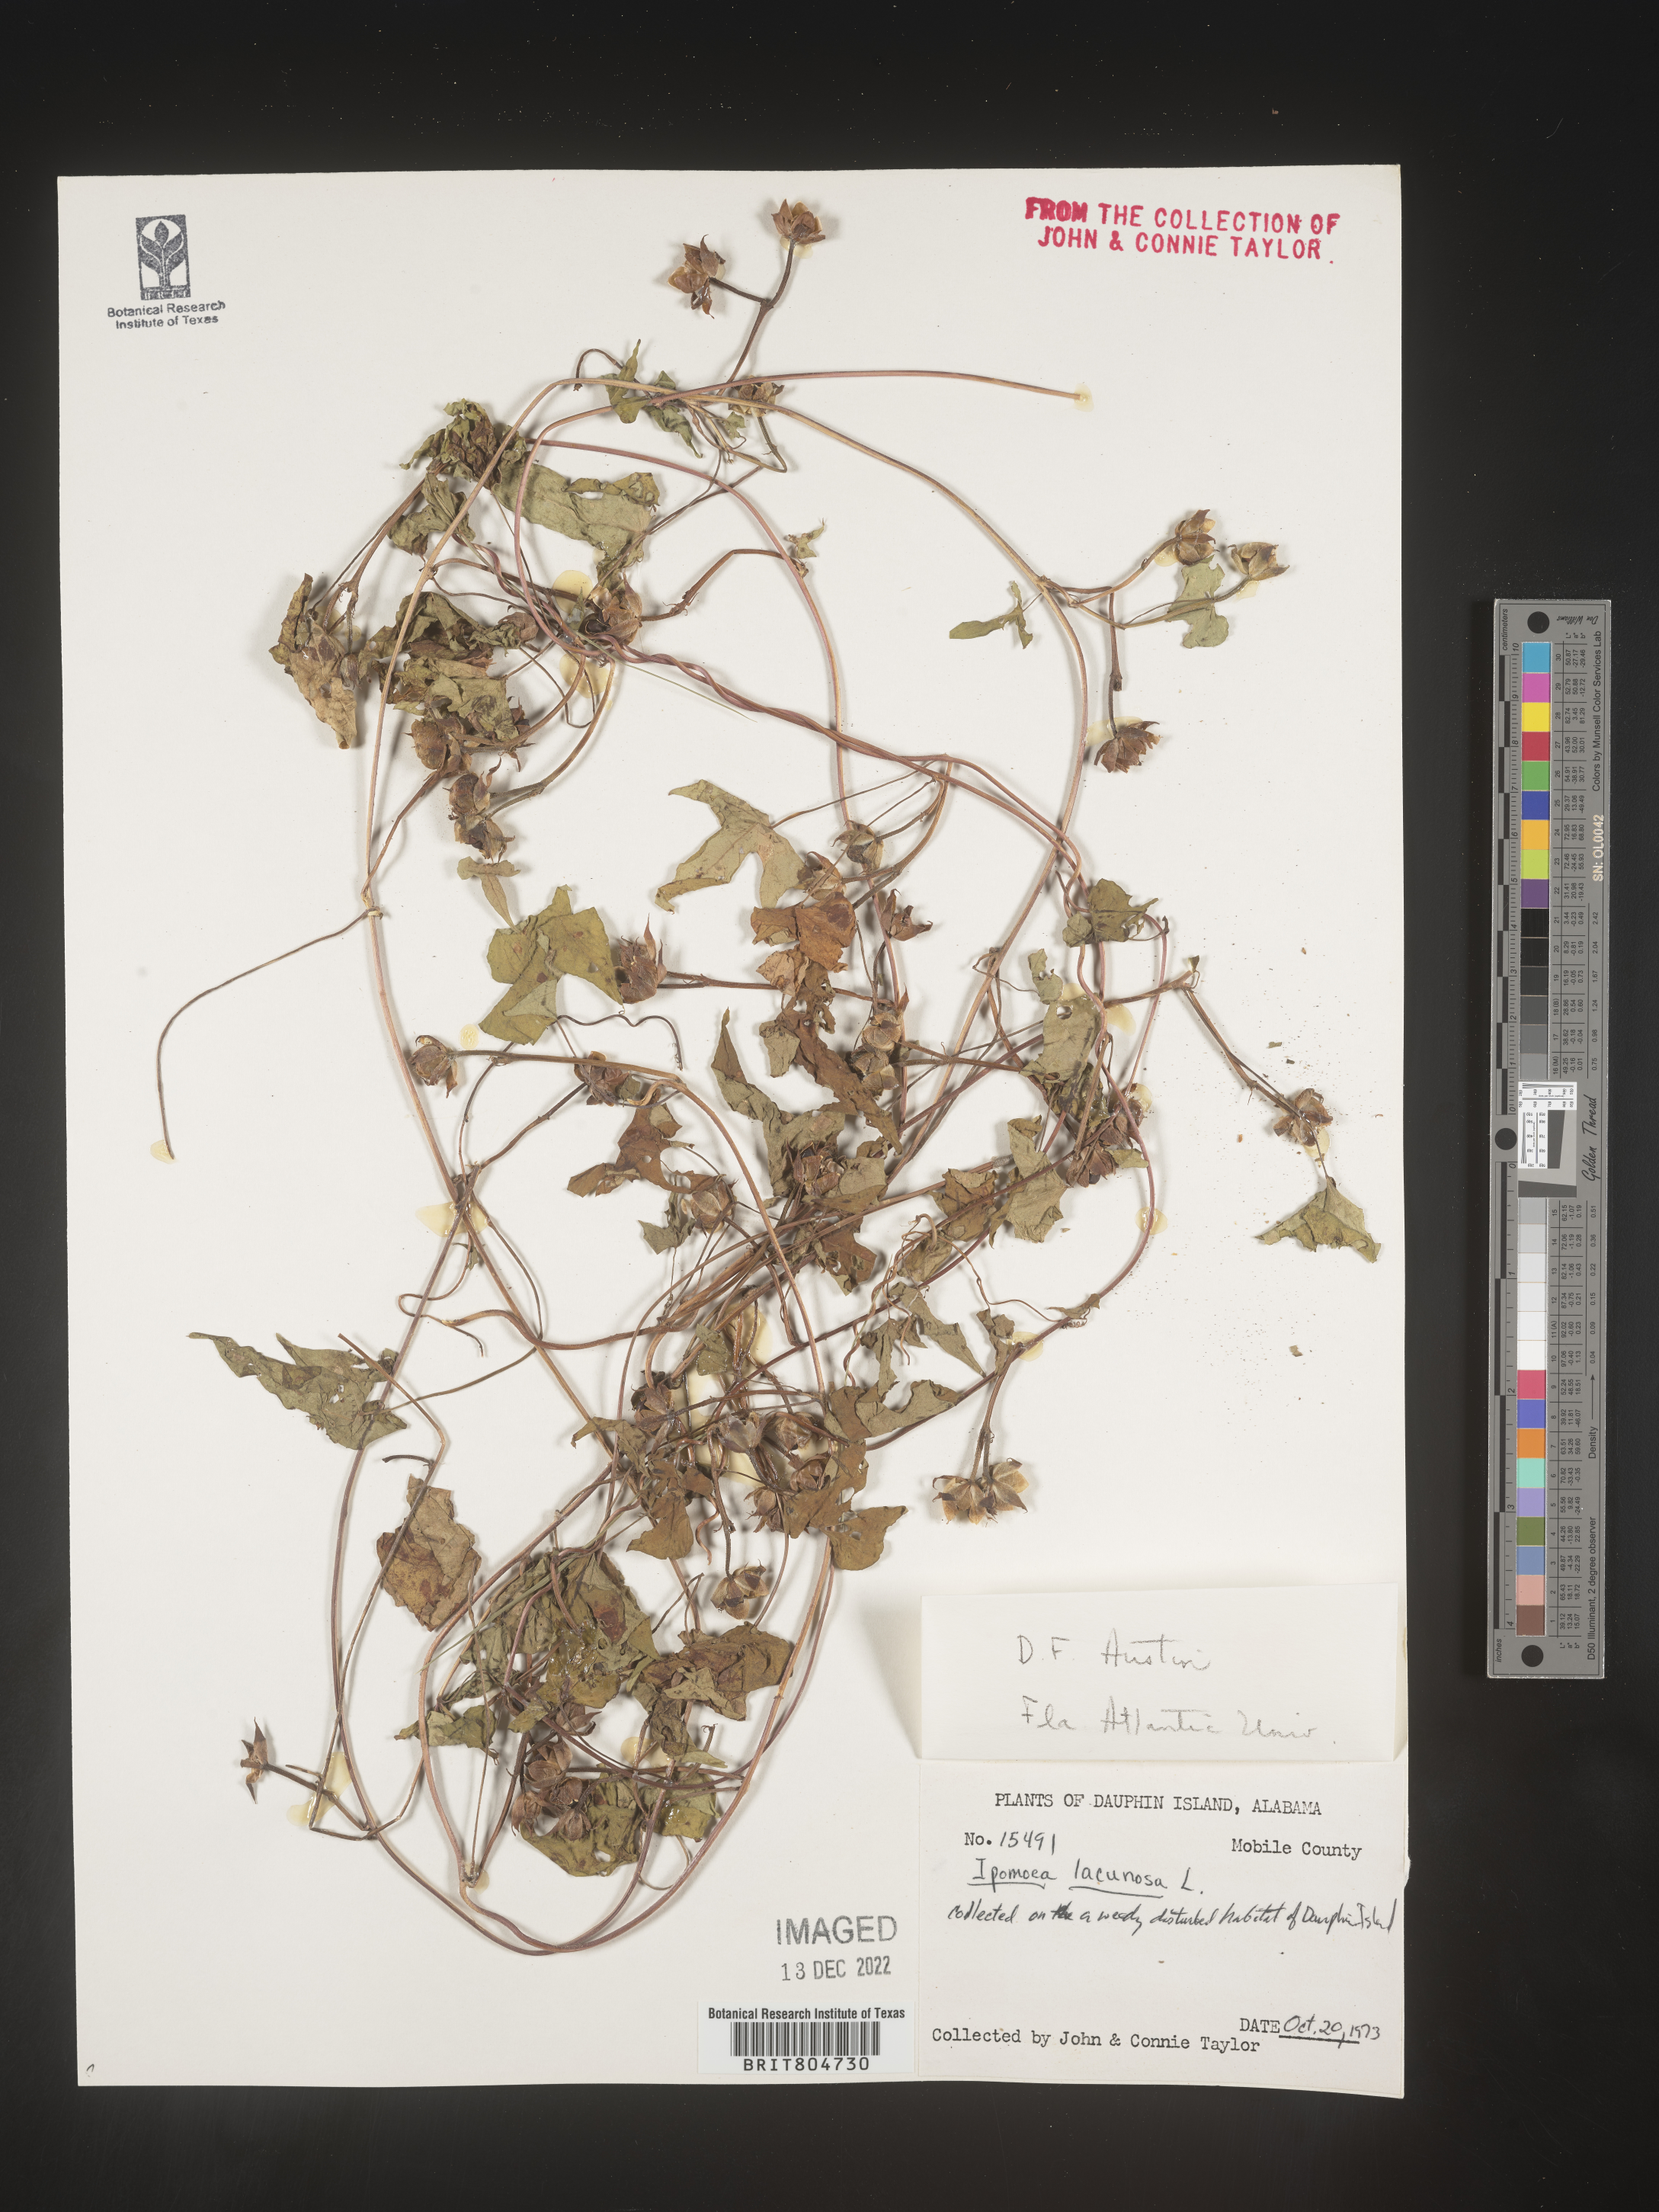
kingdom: Plantae
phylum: Tracheophyta
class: Magnoliopsida
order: Solanales
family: Convolvulaceae
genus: Ipomoea
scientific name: Ipomoea lacunosa
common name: White morning-glory
